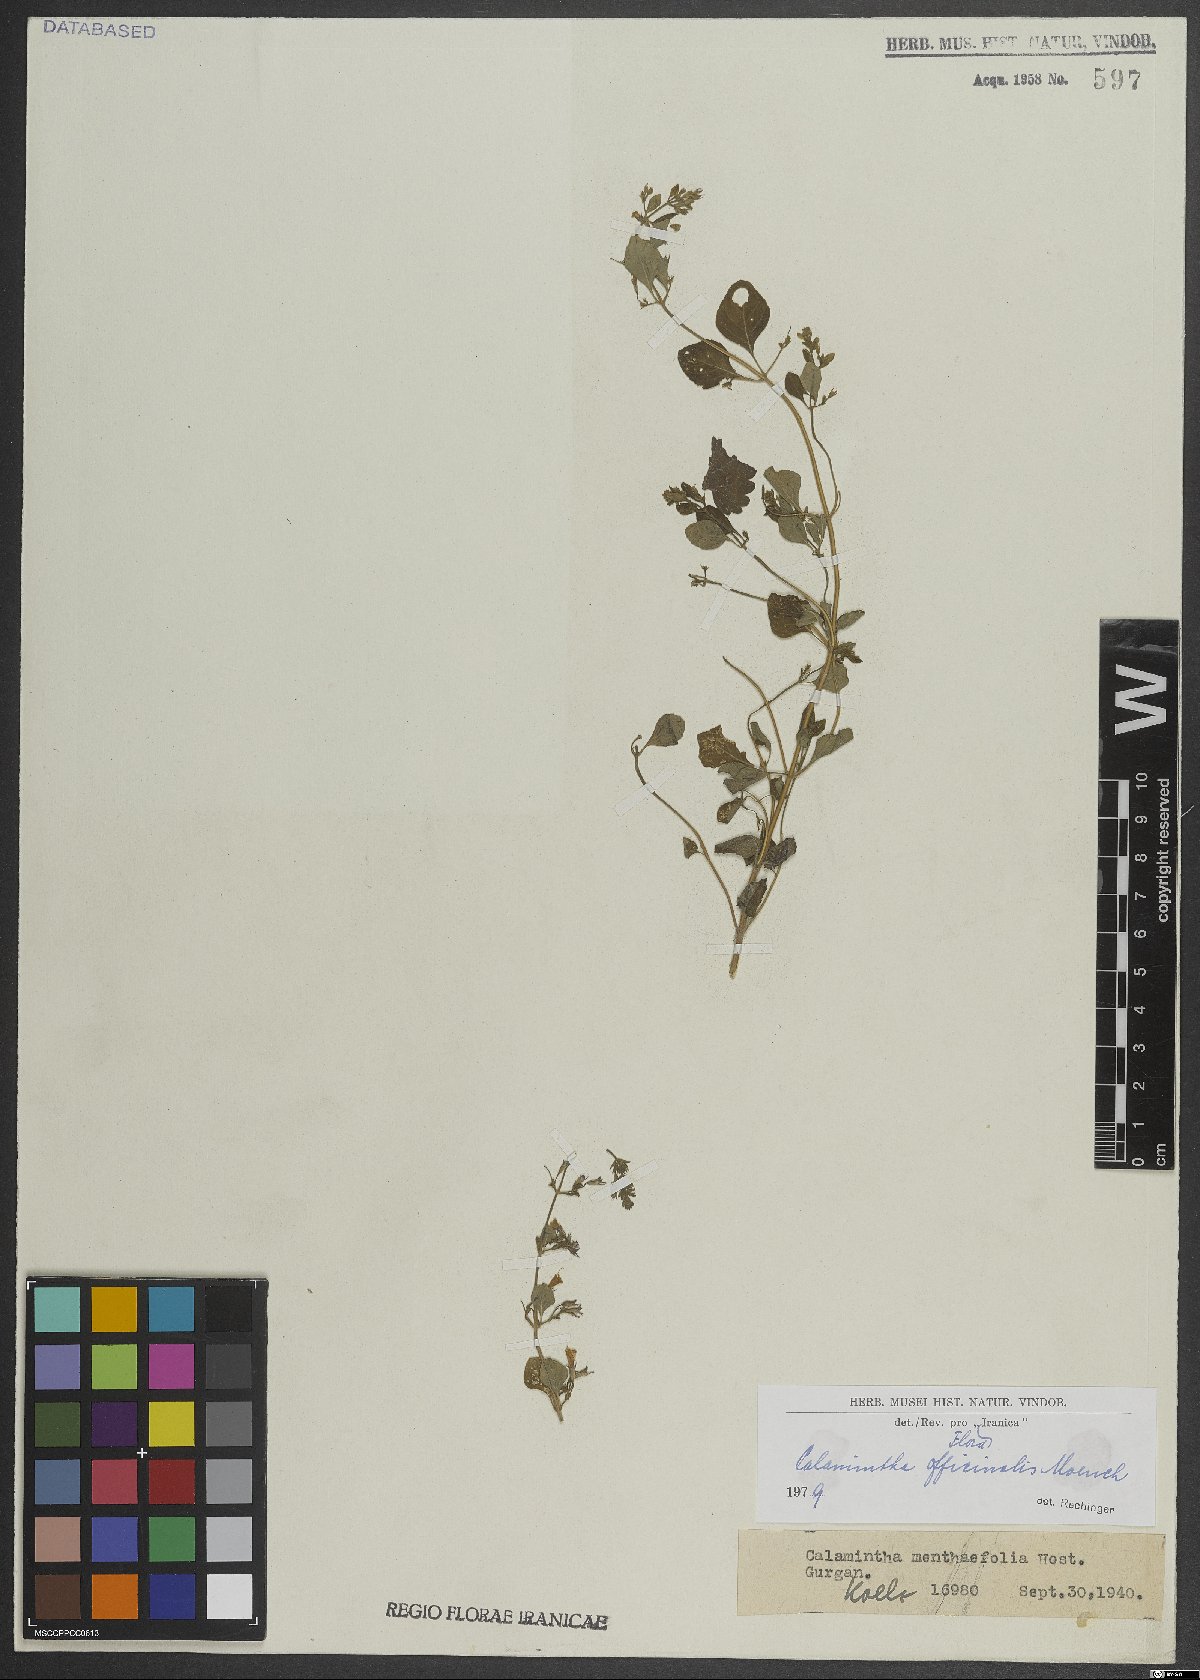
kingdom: Plantae
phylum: Tracheophyta
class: Magnoliopsida
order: Lamiales
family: Lamiaceae
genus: Clinopodium
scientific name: Clinopodium nepeta
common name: Lesser calamint
